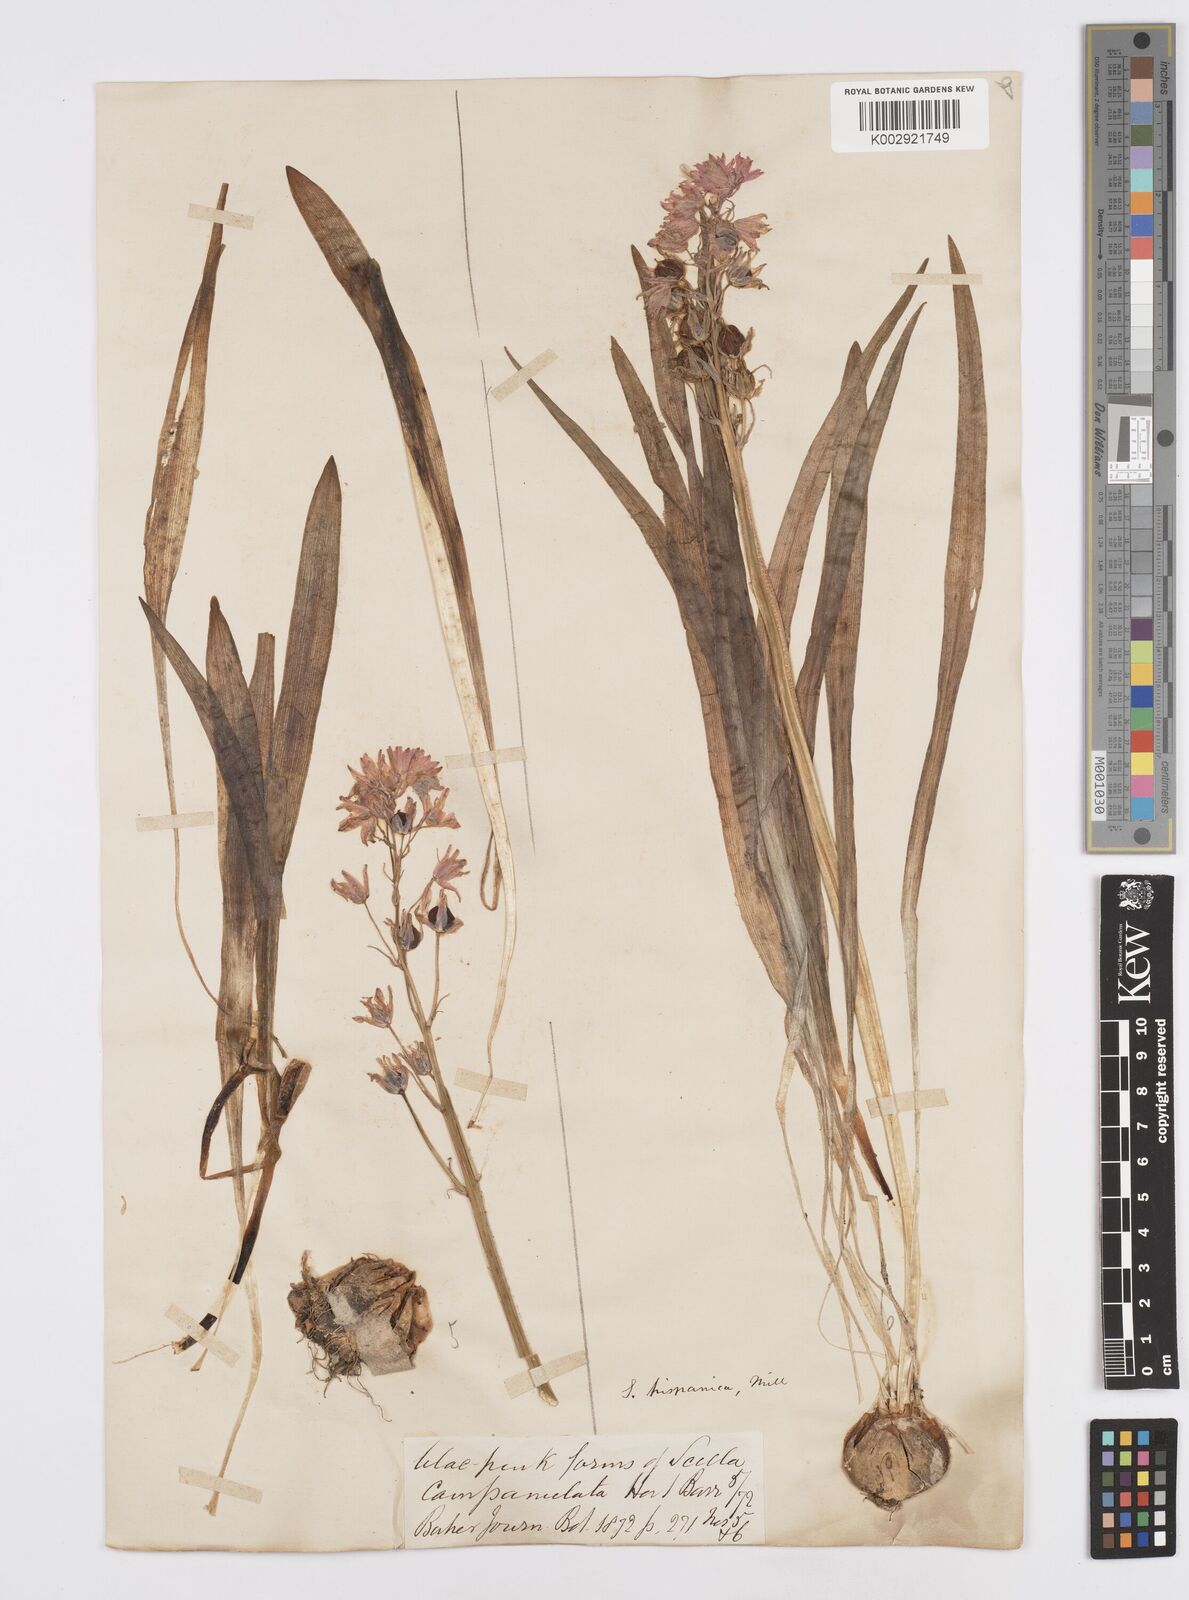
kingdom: Plantae
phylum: Tracheophyta
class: Liliopsida
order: Asparagales
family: Asparagaceae
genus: Hyacinthoides
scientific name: Hyacinthoides hispanica
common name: Spanish bluebell
